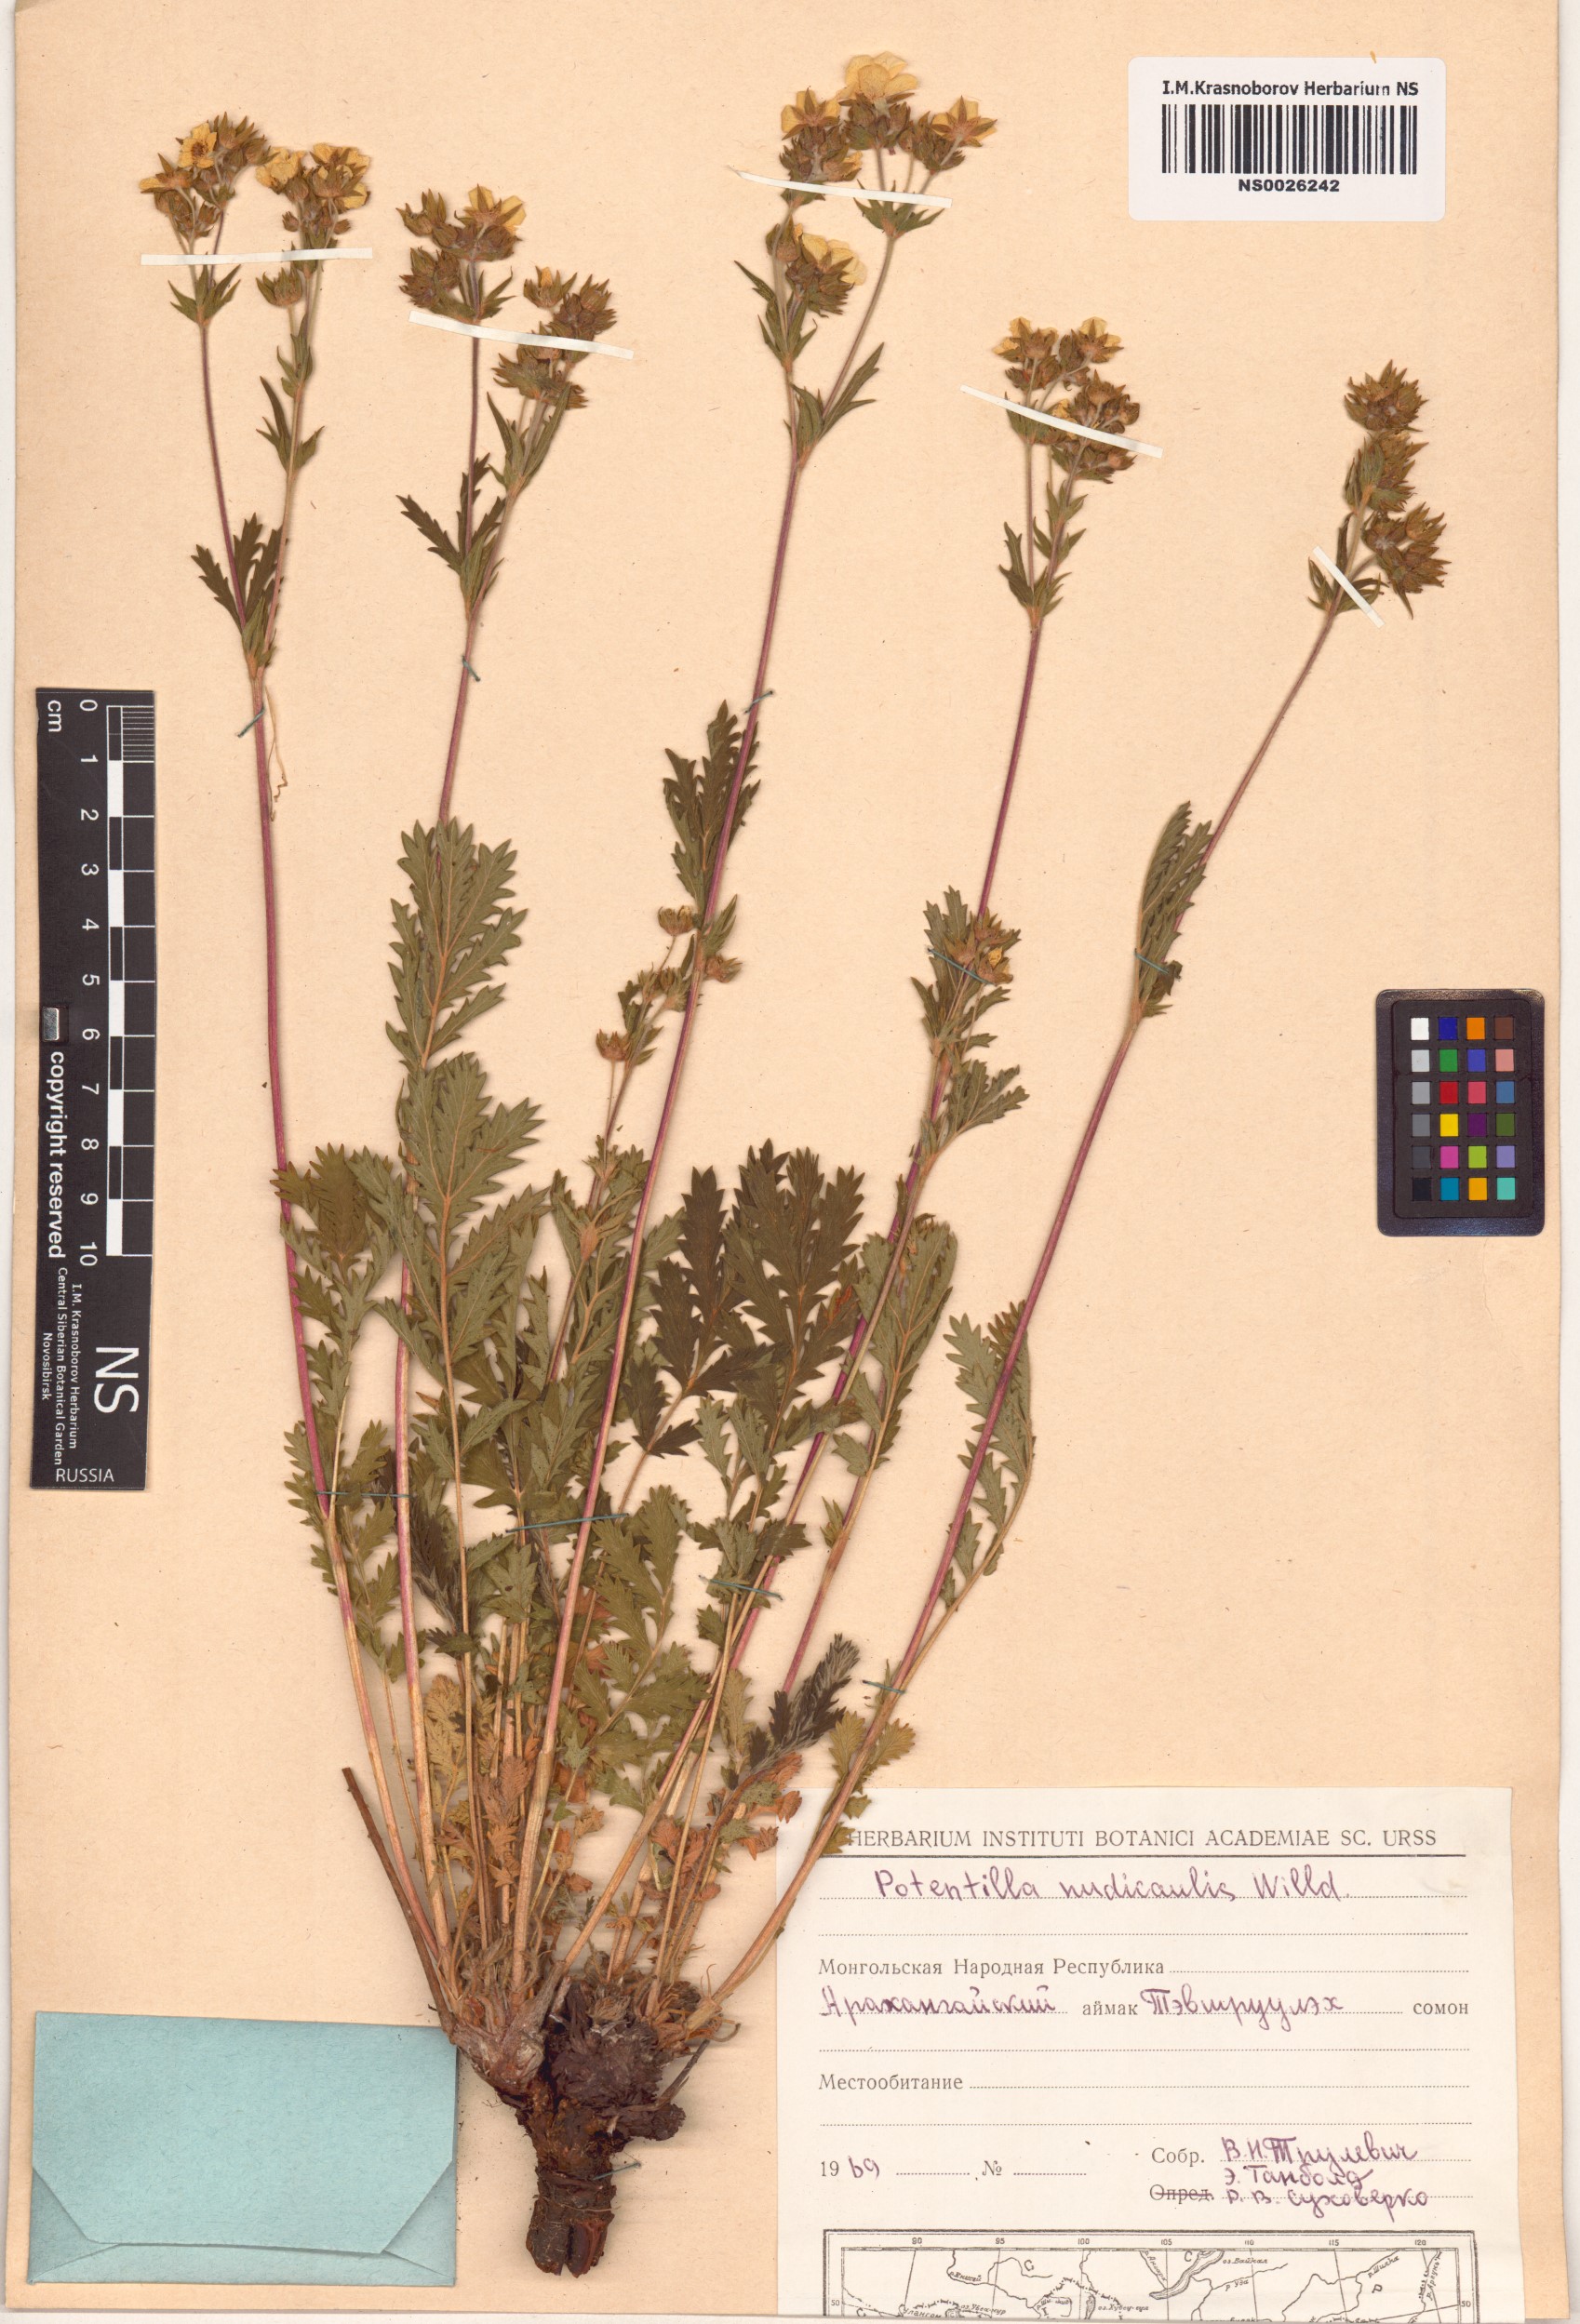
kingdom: Plantae
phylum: Tracheophyta
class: Magnoliopsida
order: Rosales
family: Rosaceae
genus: Potentilla
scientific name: Potentilla tanacetifolia
